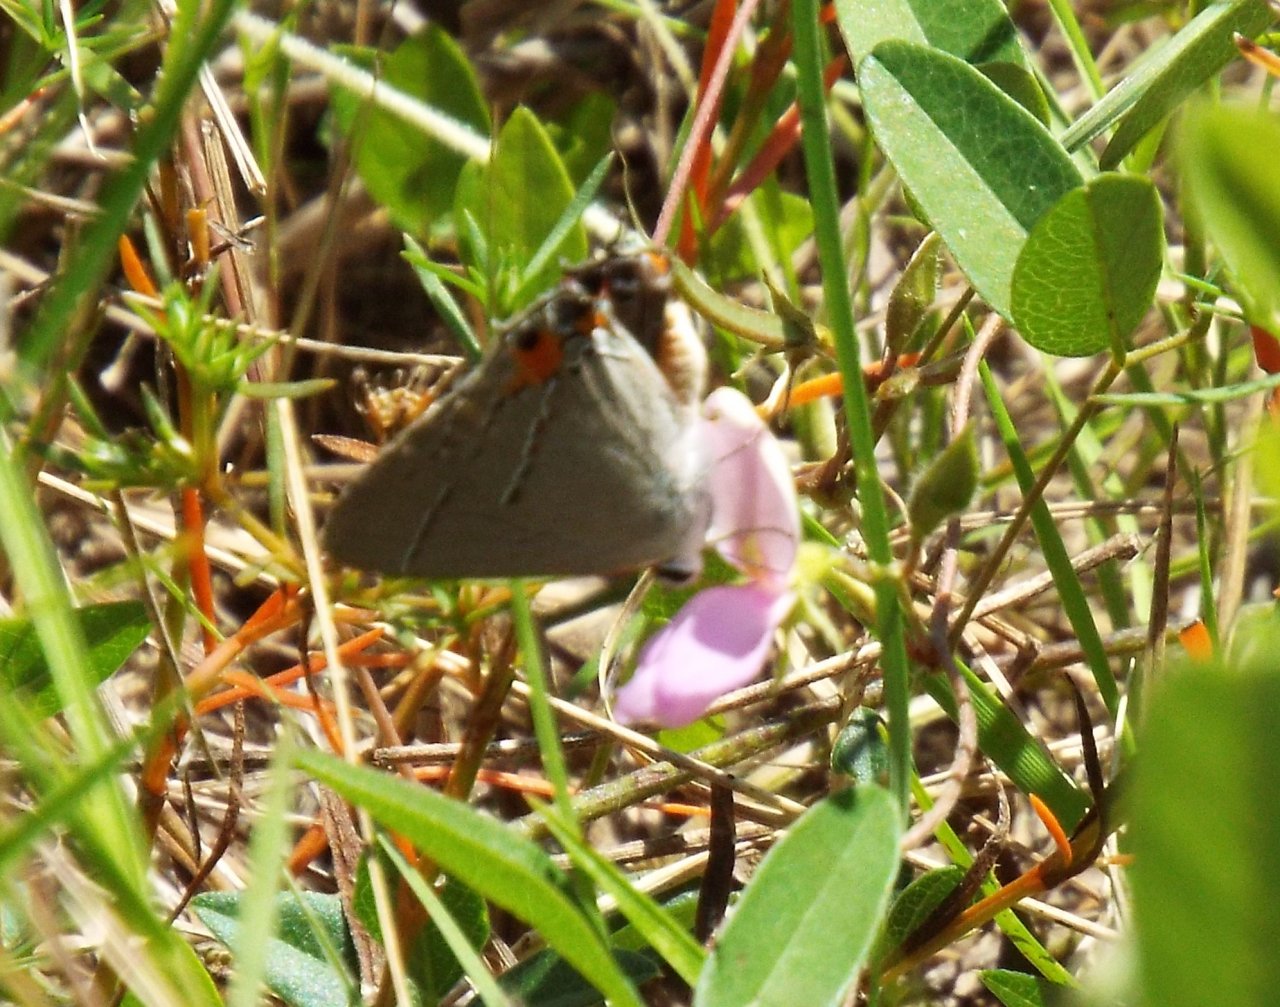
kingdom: Animalia
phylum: Arthropoda
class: Insecta
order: Lepidoptera
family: Lycaenidae
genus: Strymon
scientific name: Strymon melinus
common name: Gray Hairstreak
